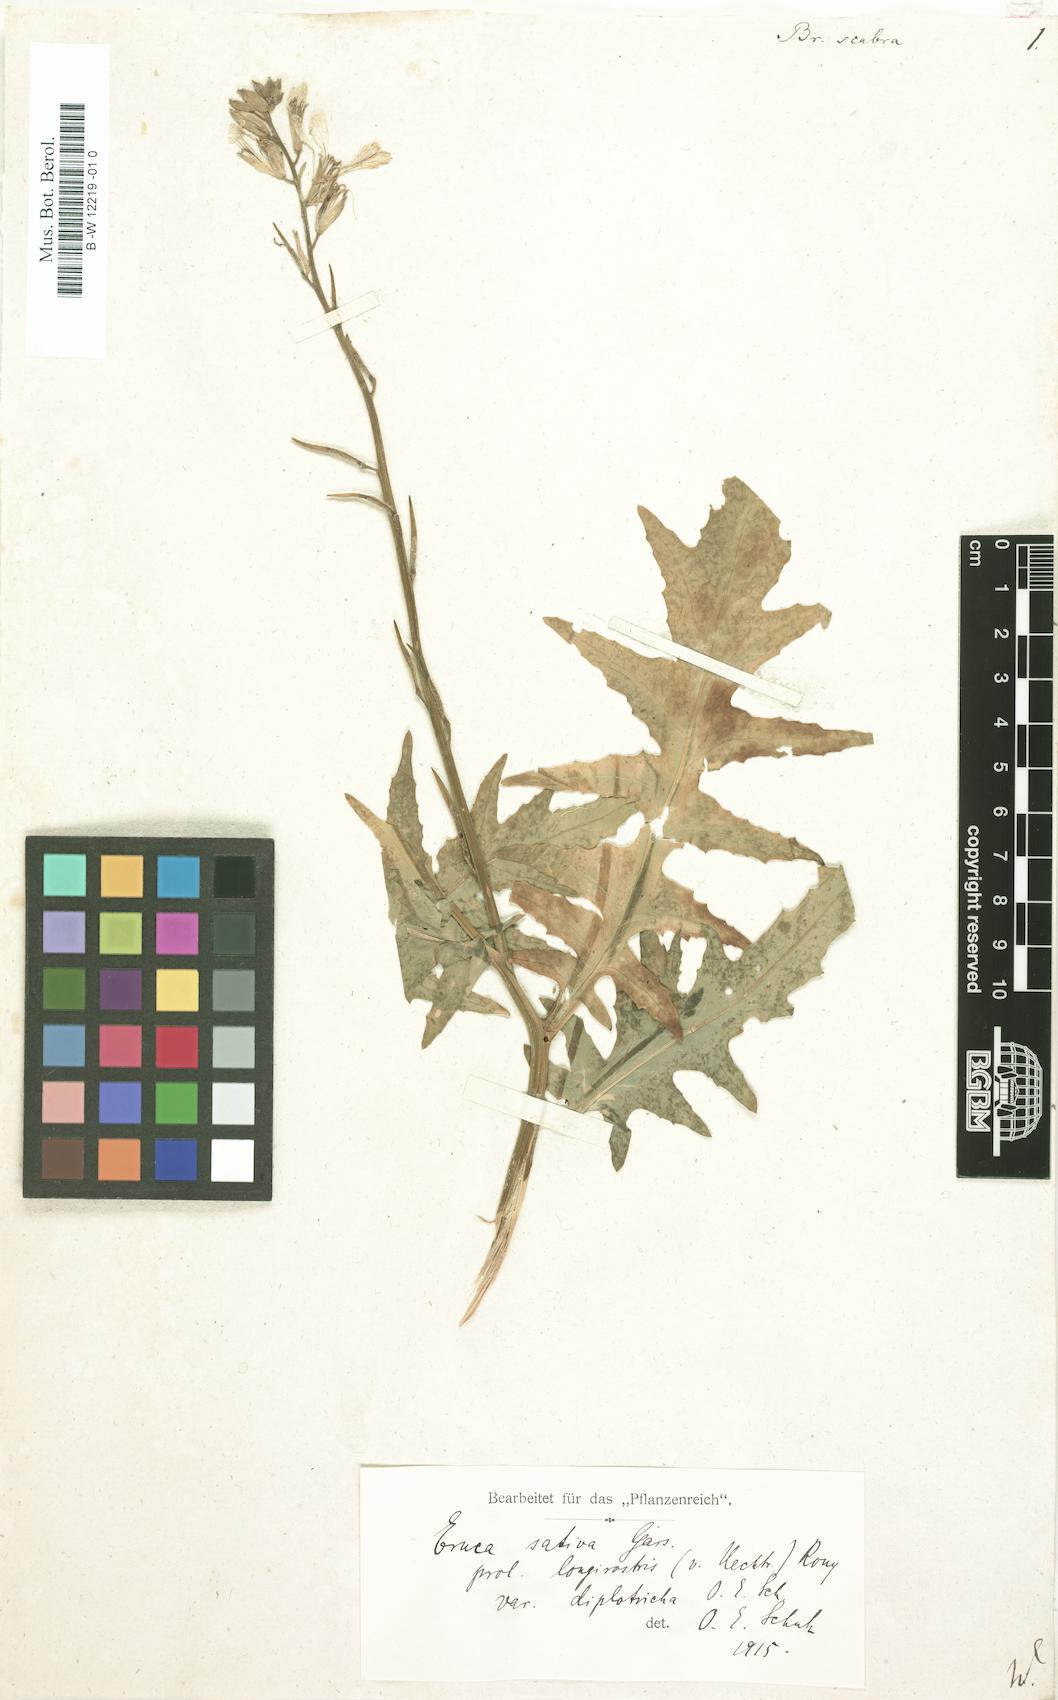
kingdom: Plantae
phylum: Tracheophyta
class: Magnoliopsida
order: Brassicales
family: Brassicaceae
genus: Brassica
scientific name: Brassica
